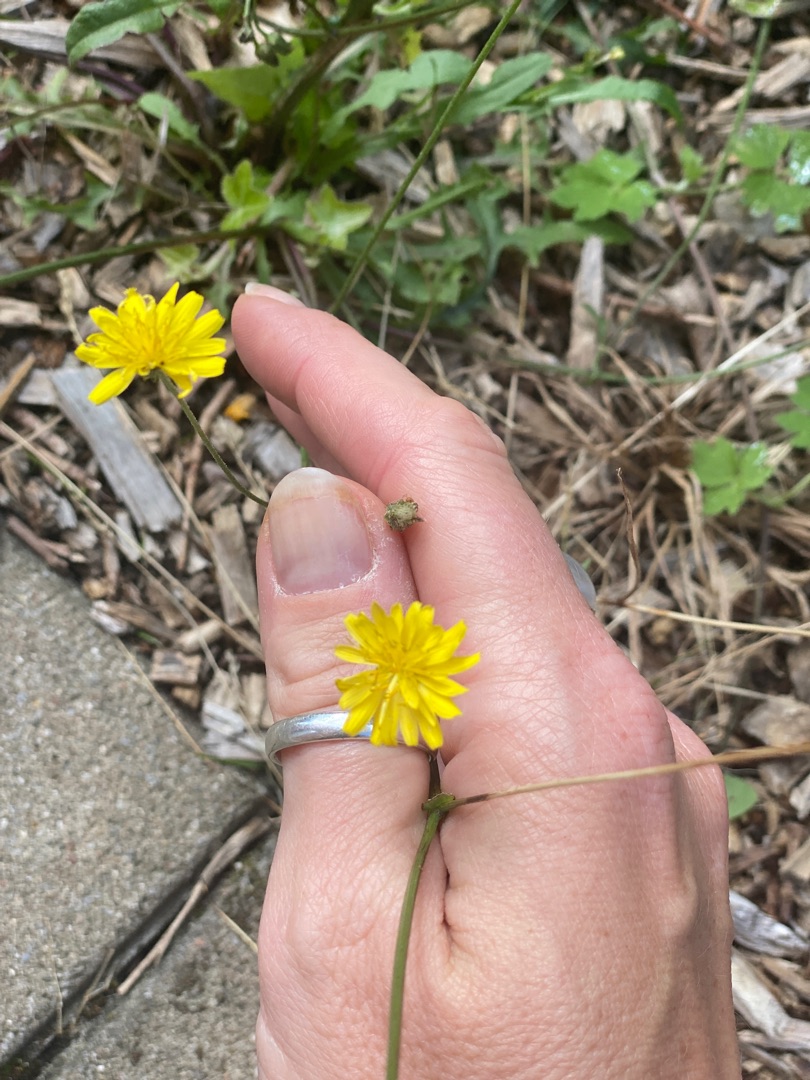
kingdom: Plantae
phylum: Tracheophyta
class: Magnoliopsida
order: Asterales
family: Asteraceae
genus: Crepis
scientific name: Crepis capillaris
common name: Grøn høgeskæg
